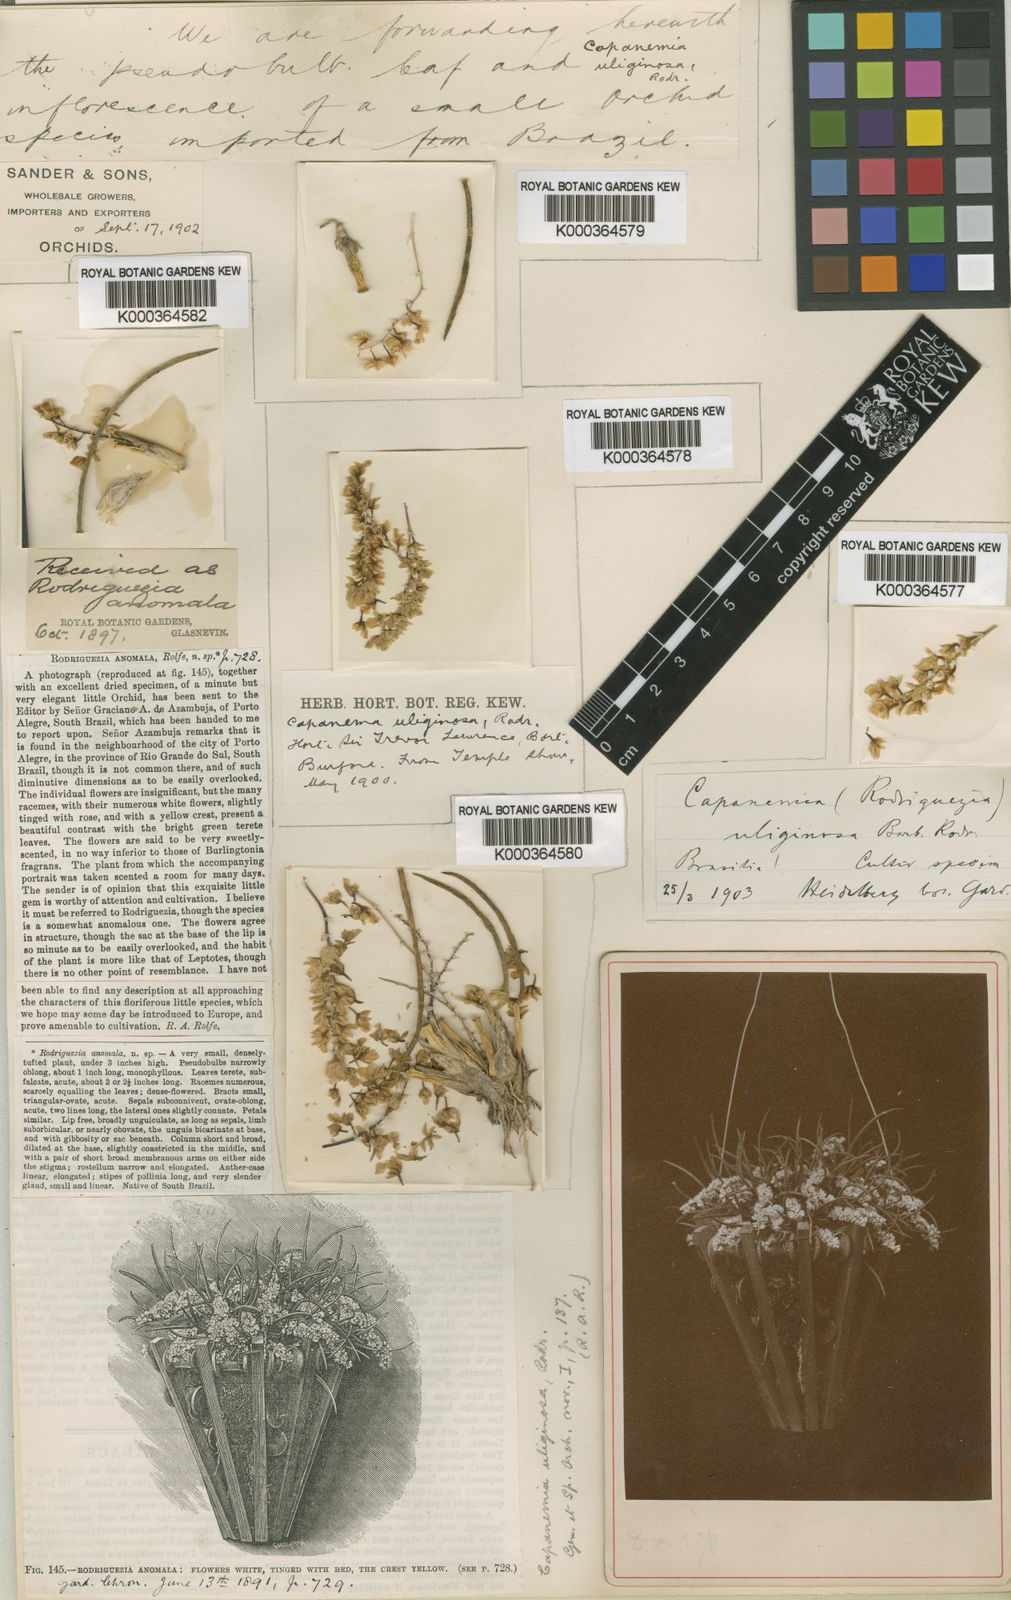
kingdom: Plantae
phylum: Tracheophyta
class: Liliopsida
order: Asparagales
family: Orchidaceae
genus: Capanemia
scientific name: Capanemia superflua
